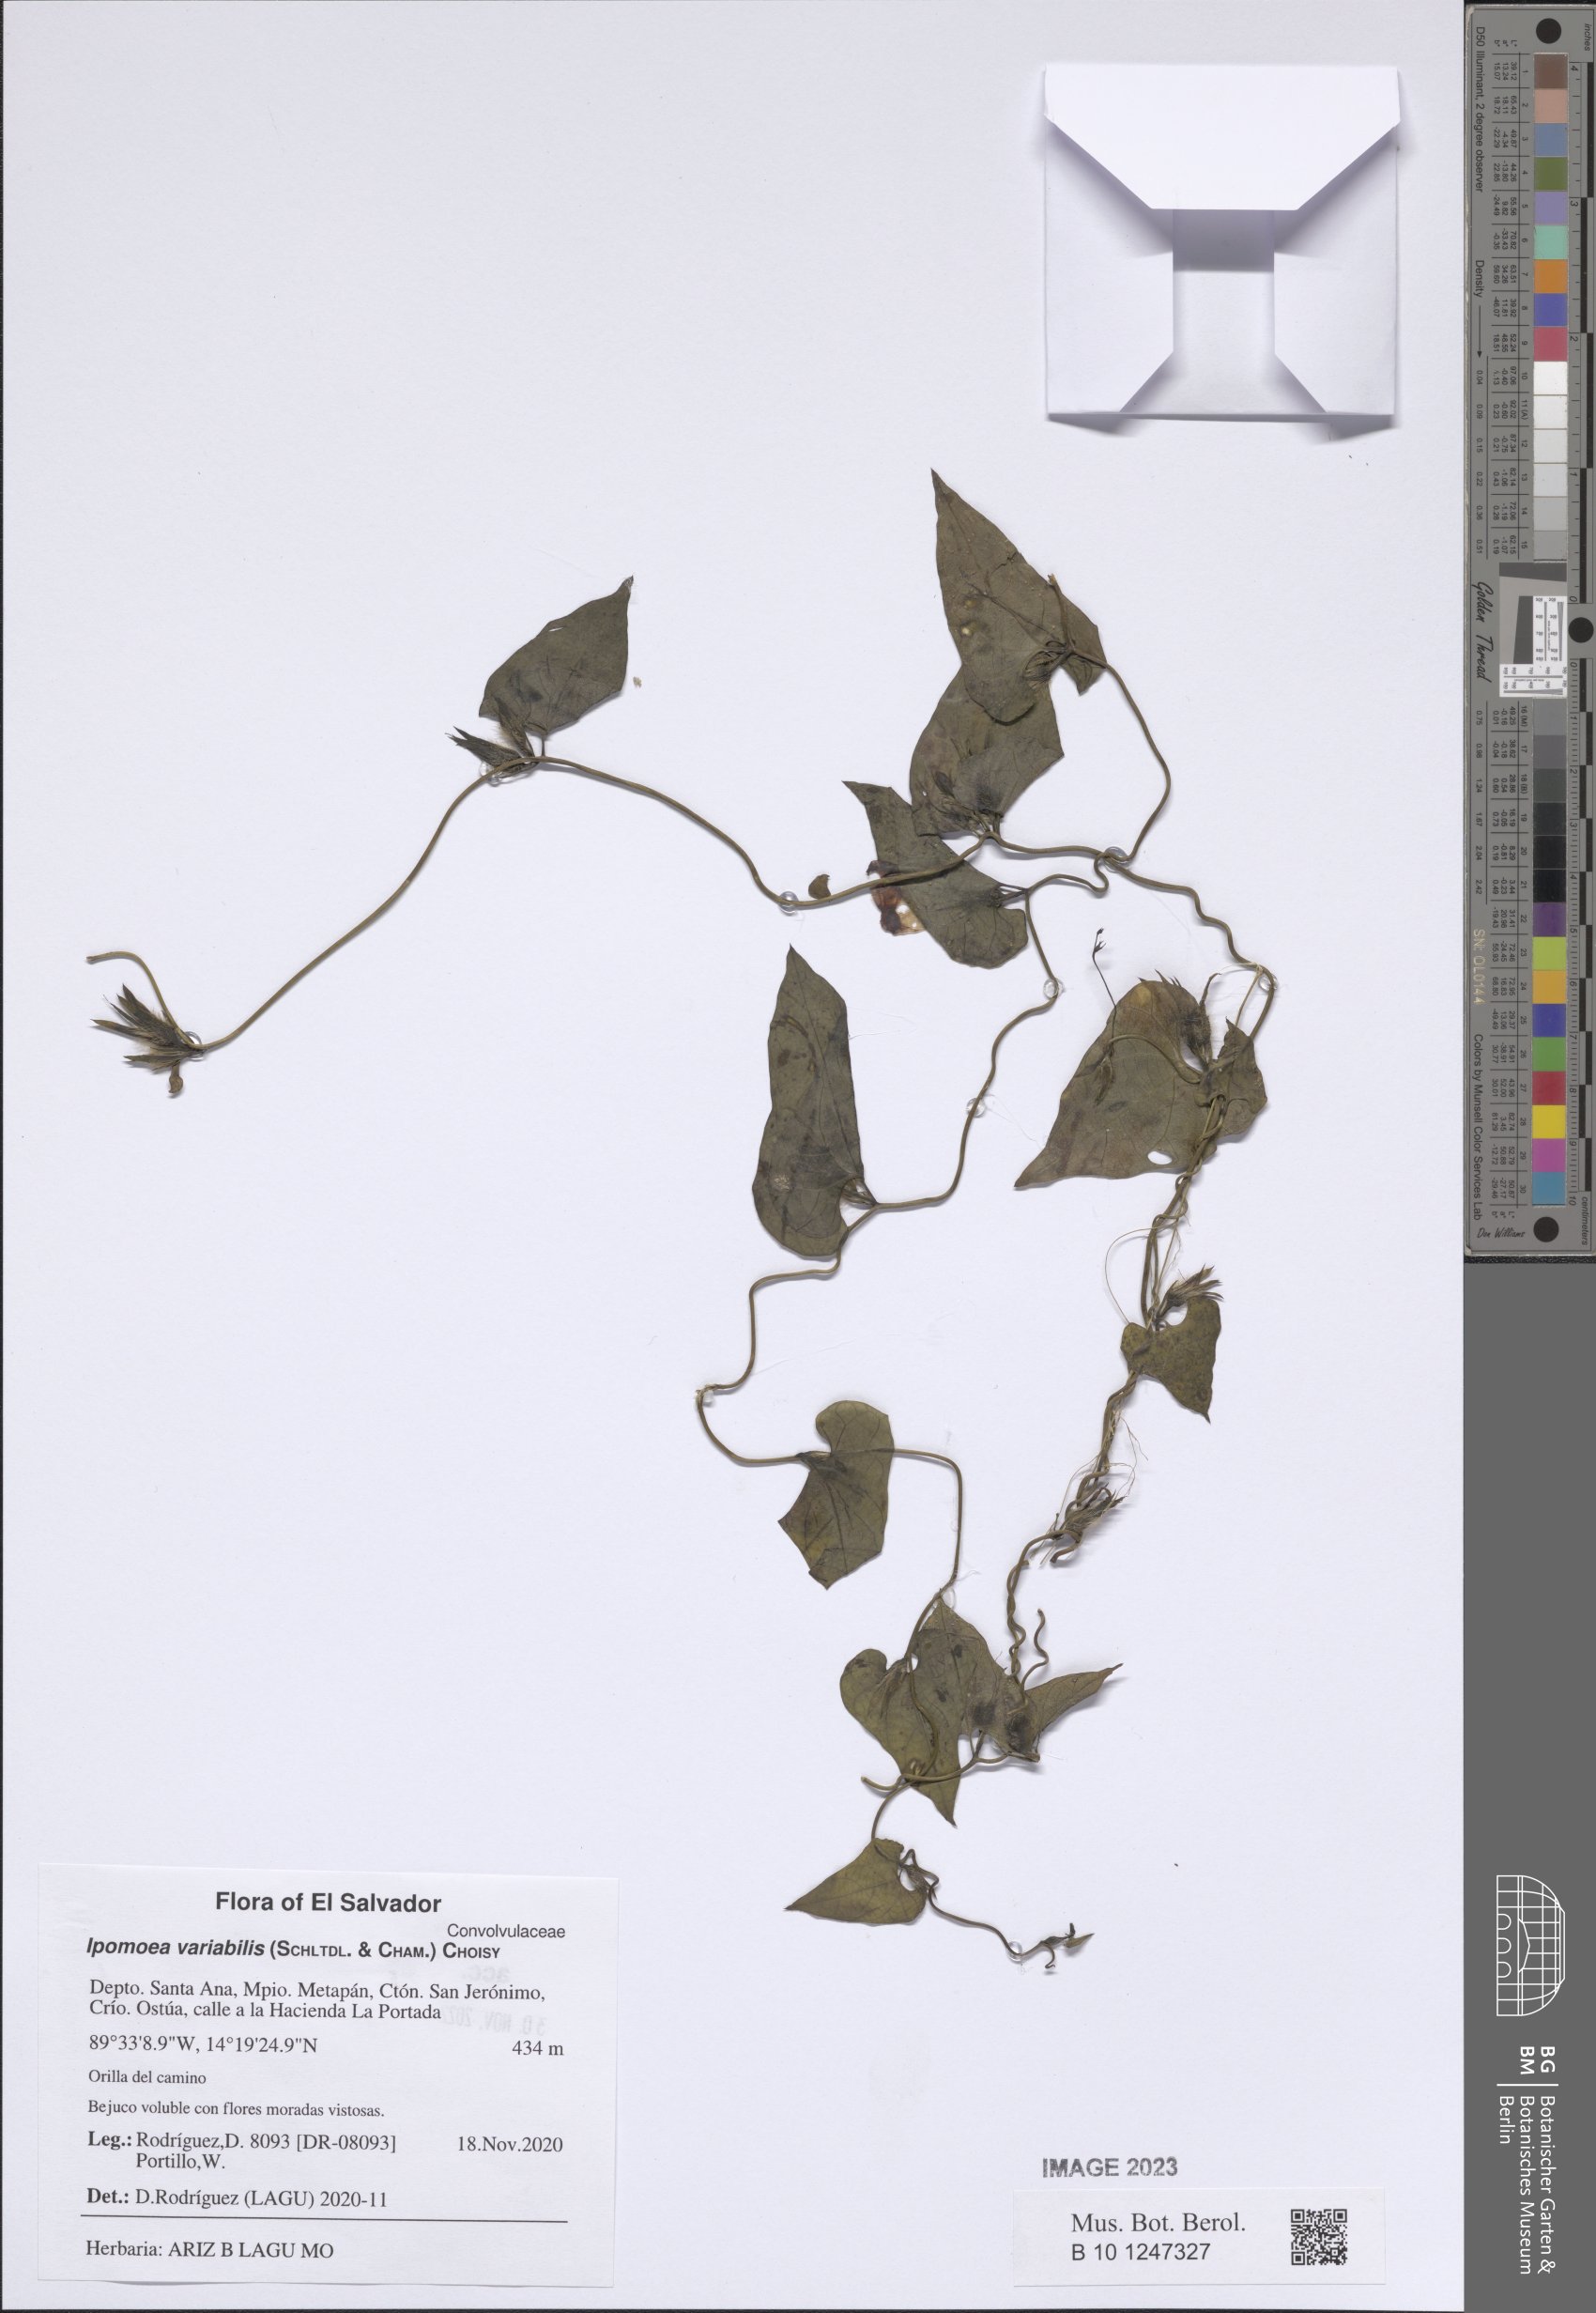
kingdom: Plantae
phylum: Tracheophyta
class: Magnoliopsida
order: Solanales
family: Convolvulaceae
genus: Ipomoea
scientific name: Ipomoea batatas
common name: Sweet-potato
